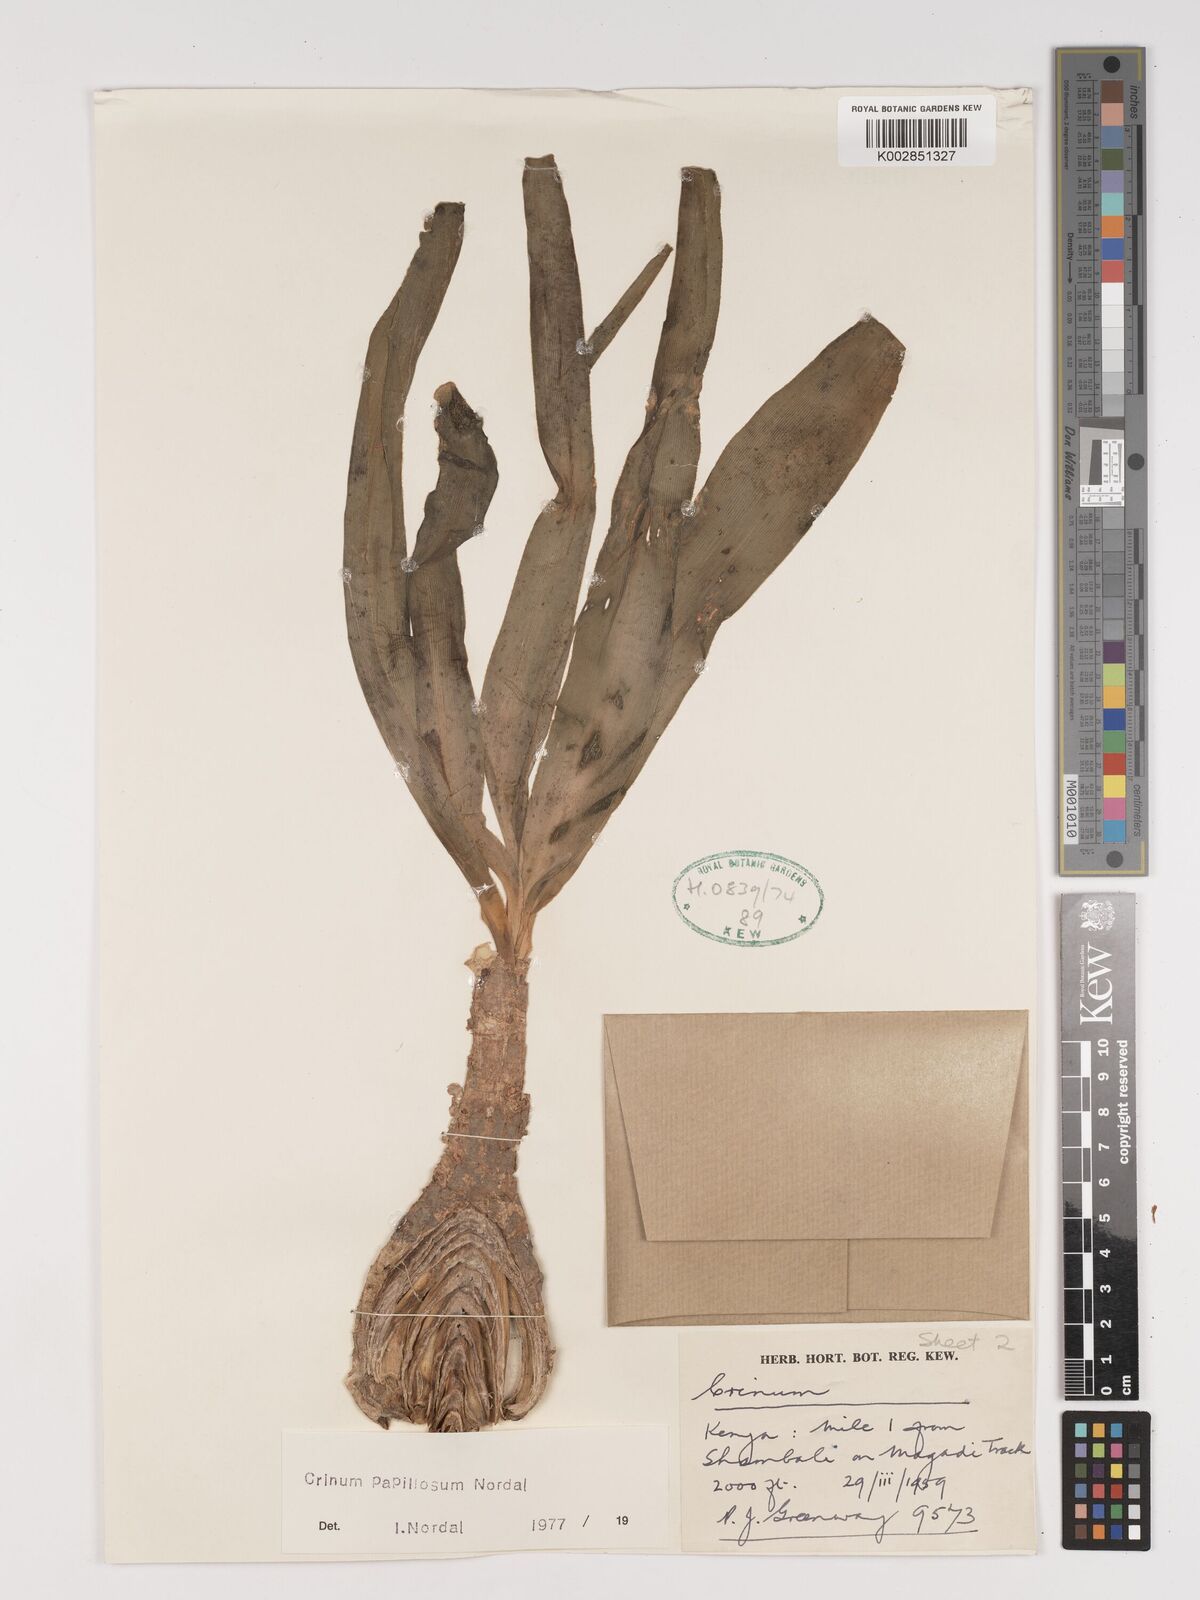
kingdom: Plantae
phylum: Tracheophyta
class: Liliopsida
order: Asparagales
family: Amaryllidaceae
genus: Crinum
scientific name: Crinum papillosum
